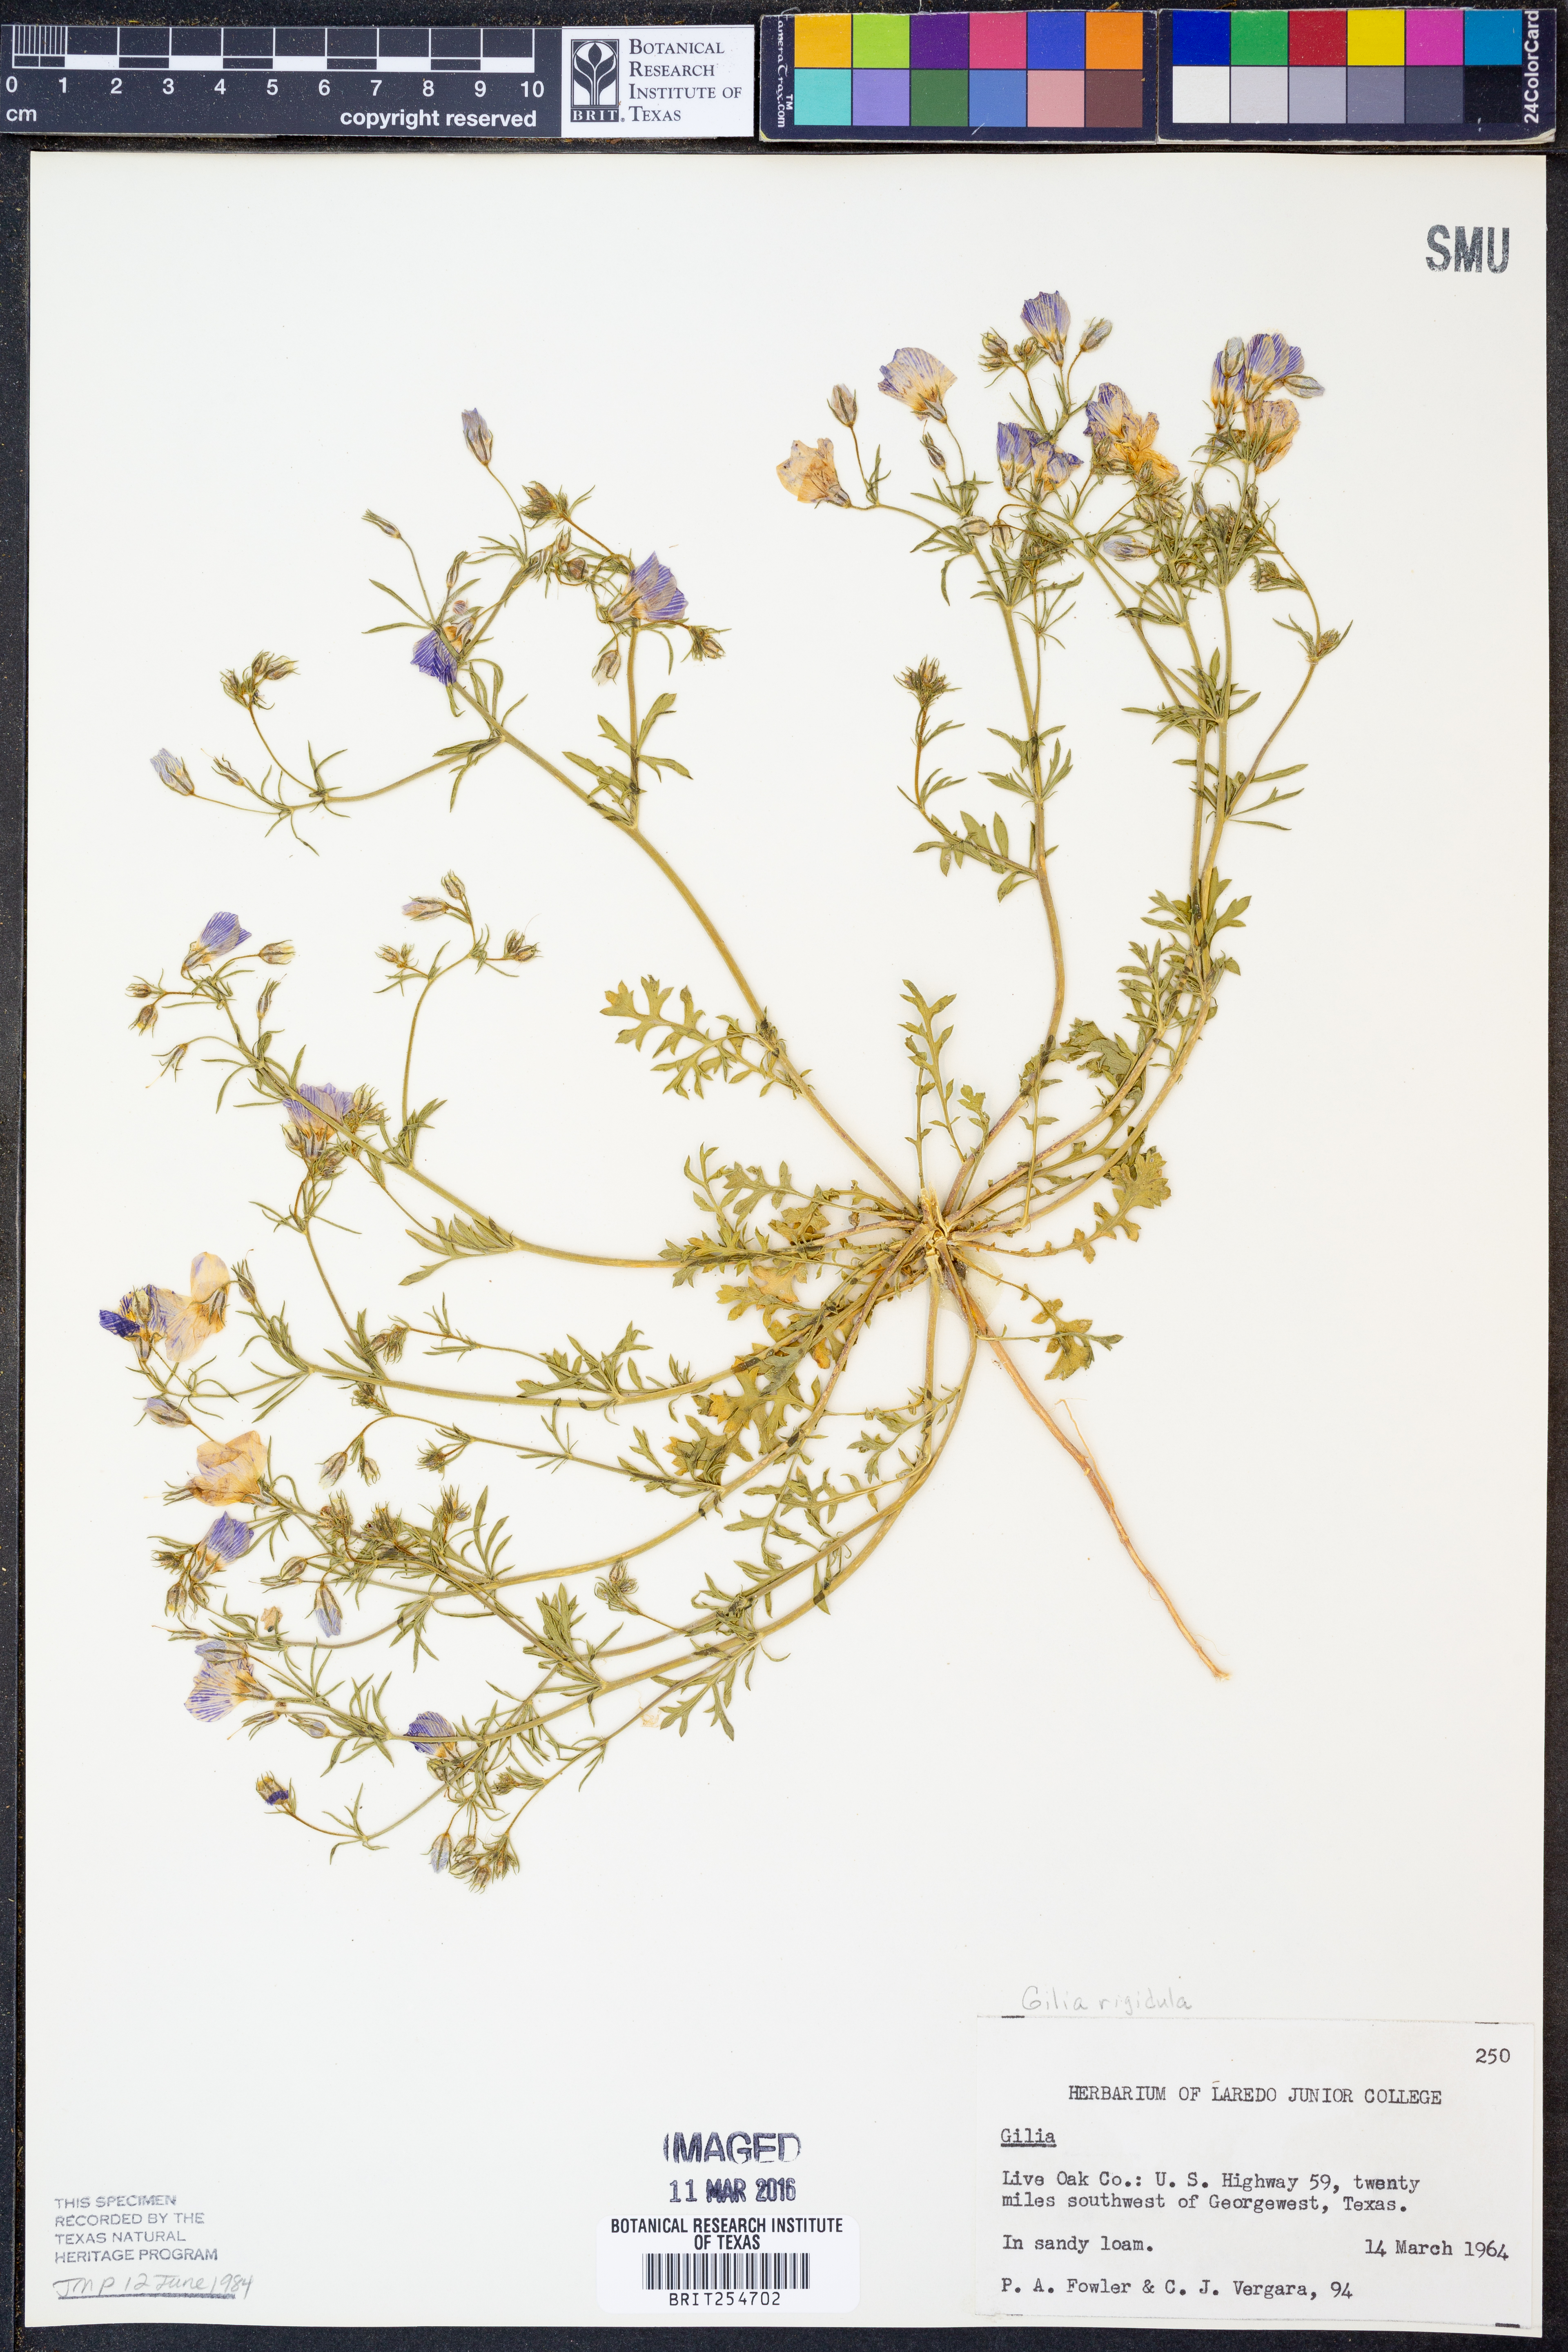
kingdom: Plantae
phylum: Tracheophyta
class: Magnoliopsida
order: Ericales
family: Polemoniaceae
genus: Giliastrum
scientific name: Giliastrum rigidulum
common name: Bluebowls
